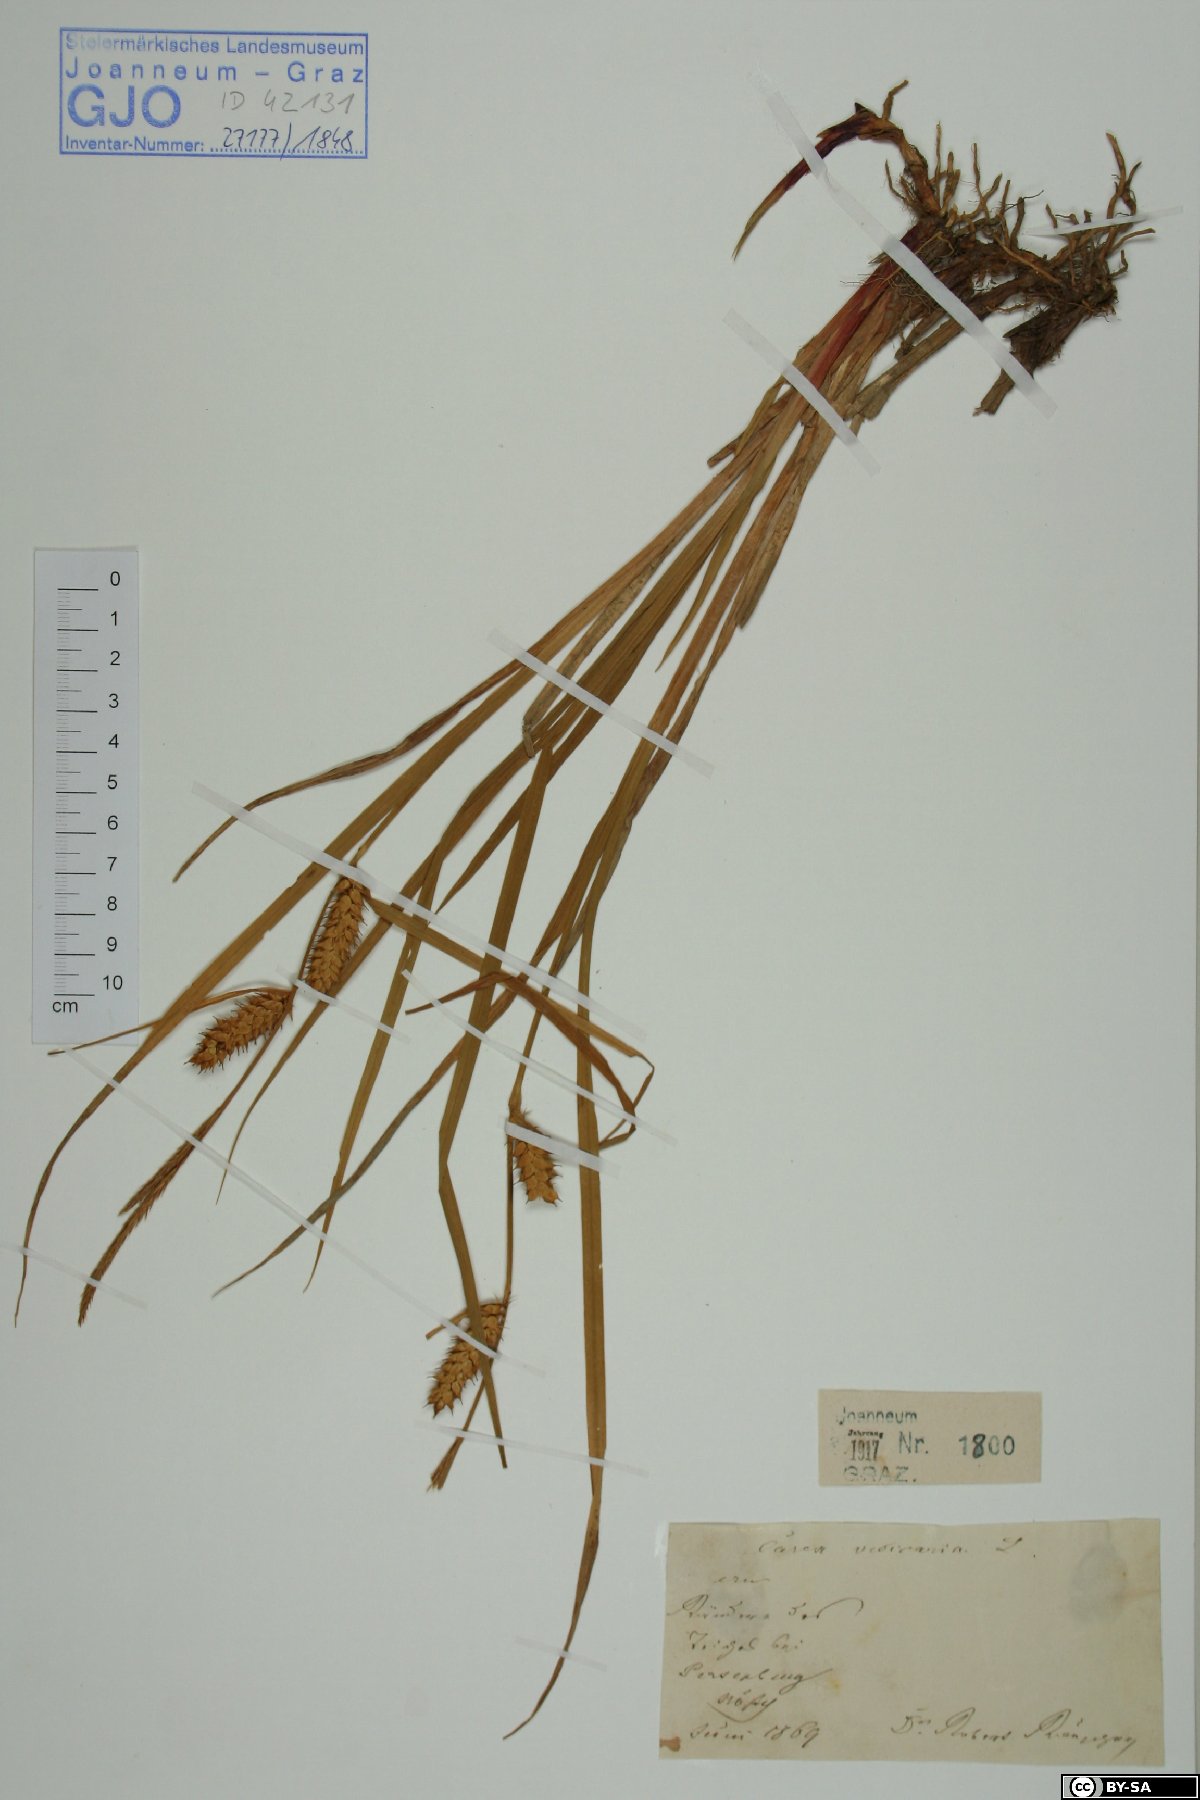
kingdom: Plantae
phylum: Tracheophyta
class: Liliopsida
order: Poales
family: Cyperaceae
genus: Carex
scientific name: Carex vesicaria
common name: Bladder-sedge
